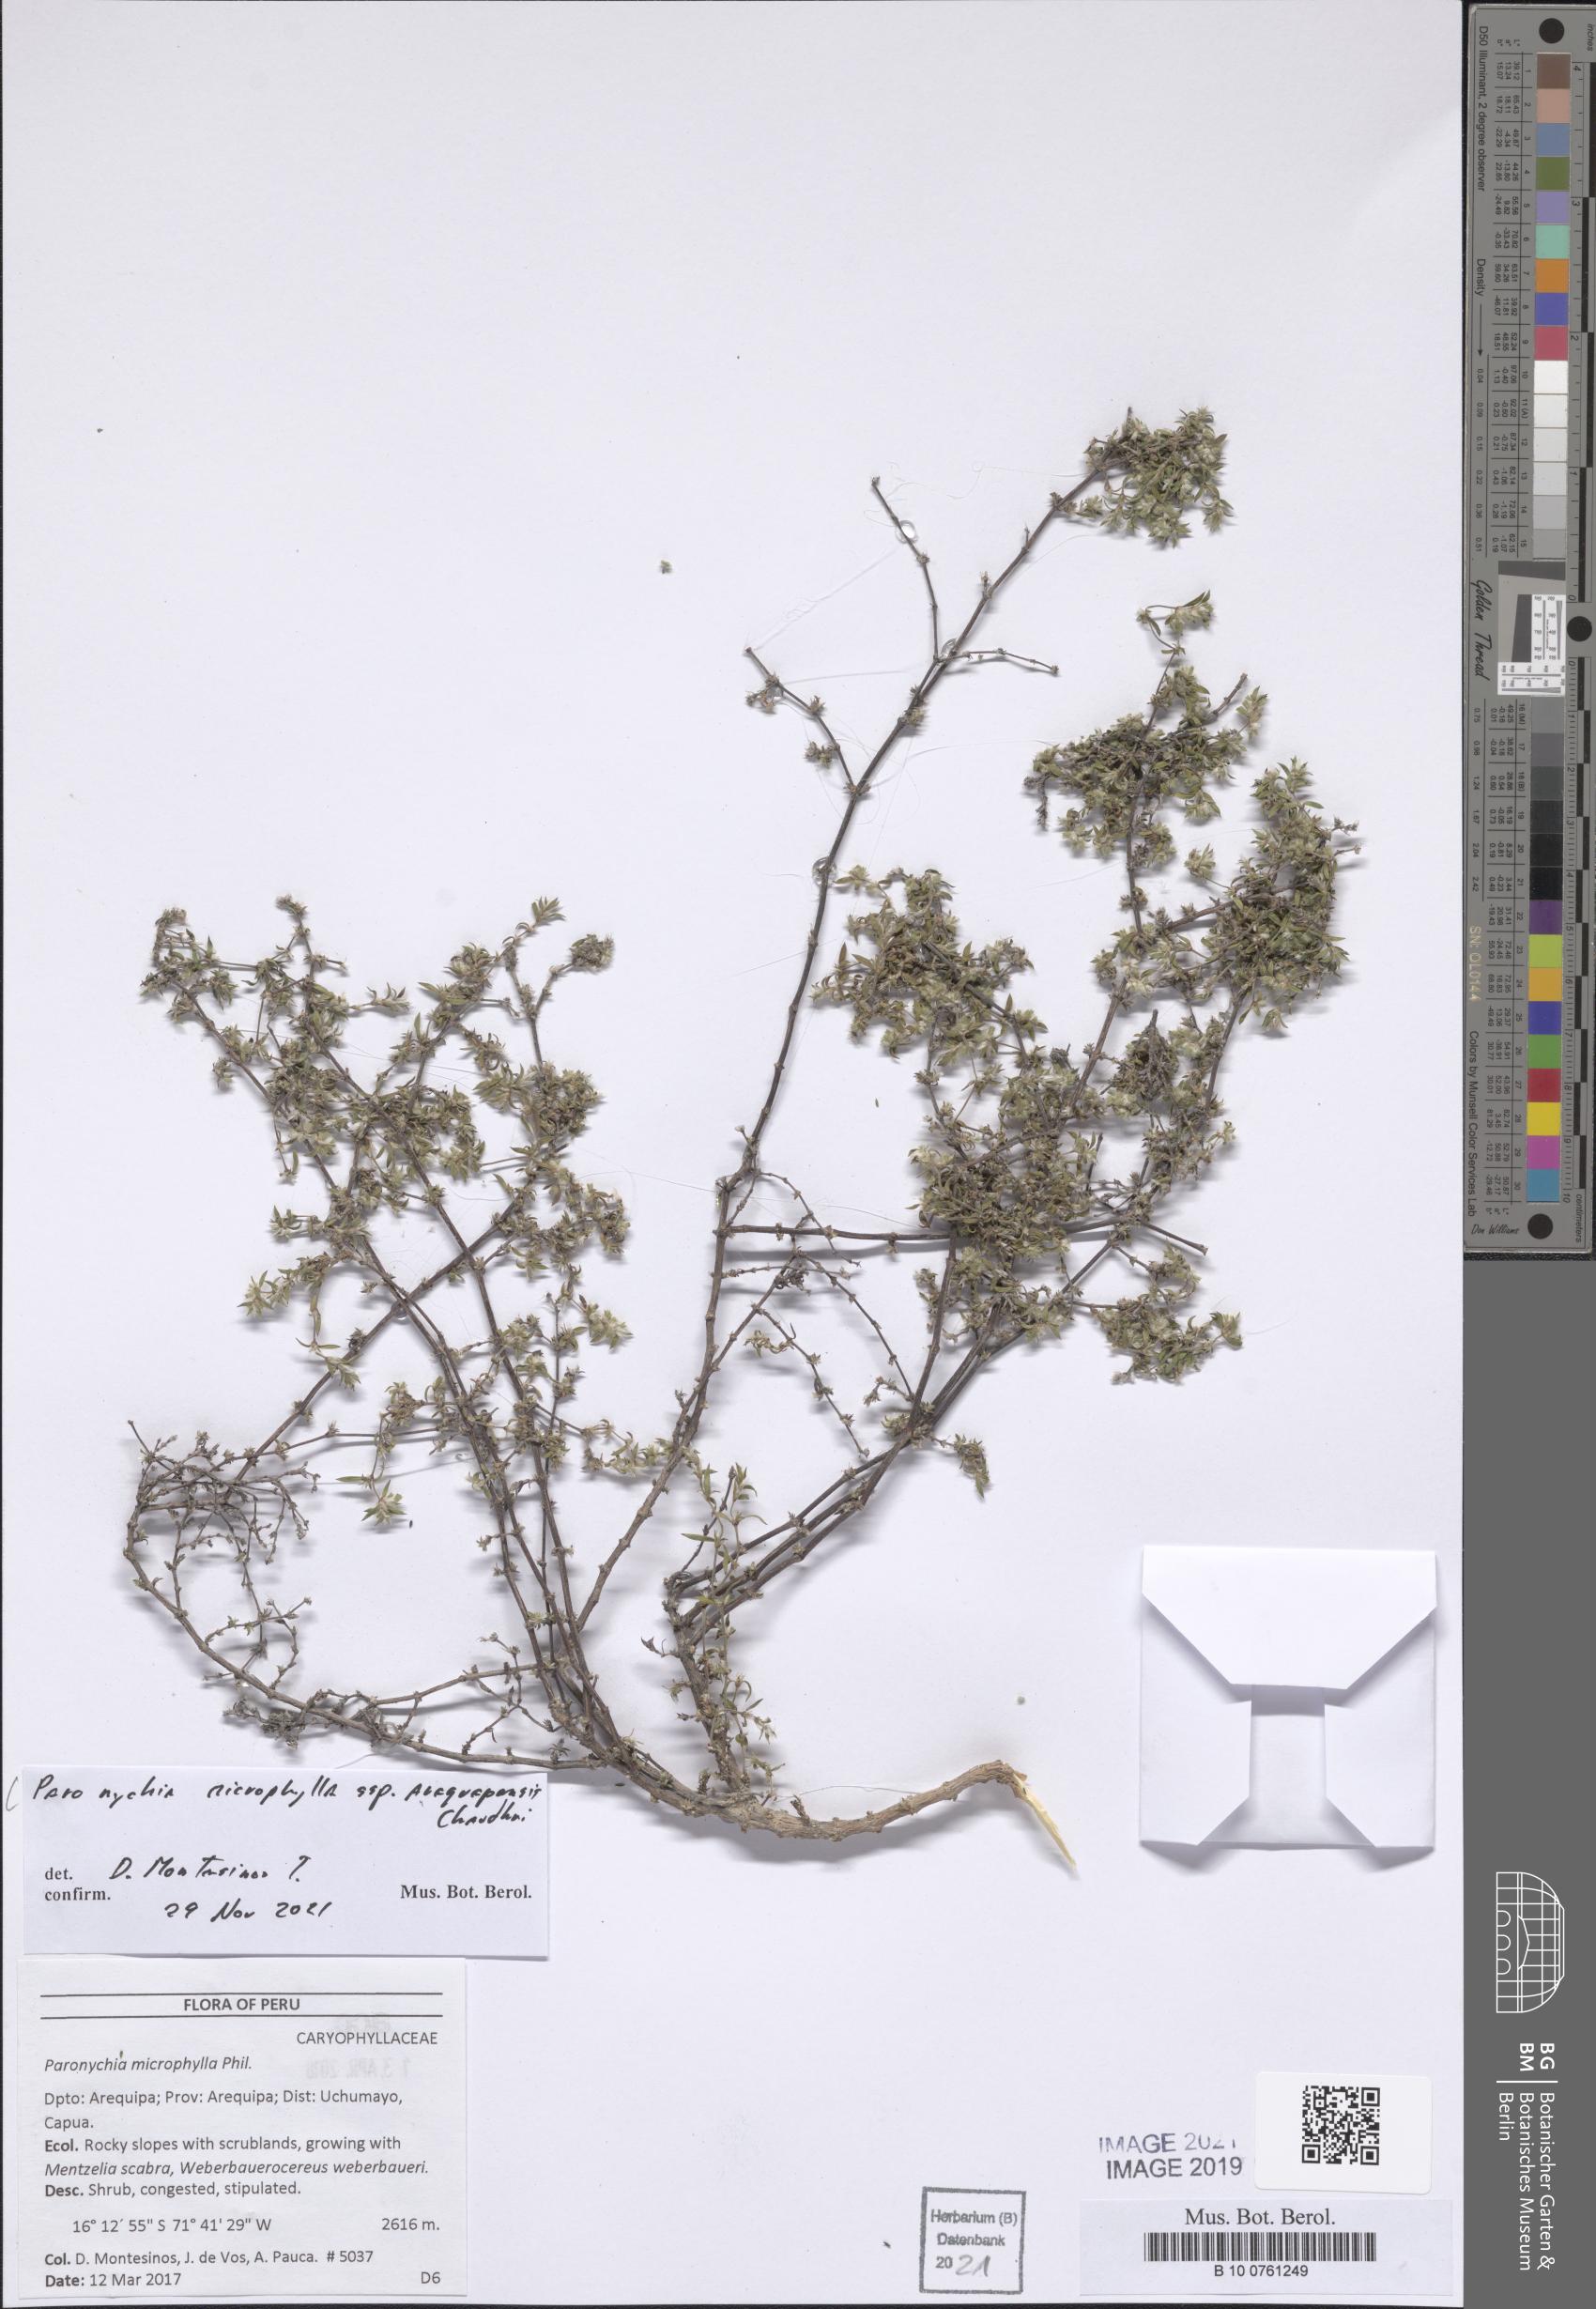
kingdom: Plantae
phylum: Tracheophyta
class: Magnoliopsida
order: Caryophyllales
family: Caryophyllaceae
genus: Paronychia
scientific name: Paronychia
